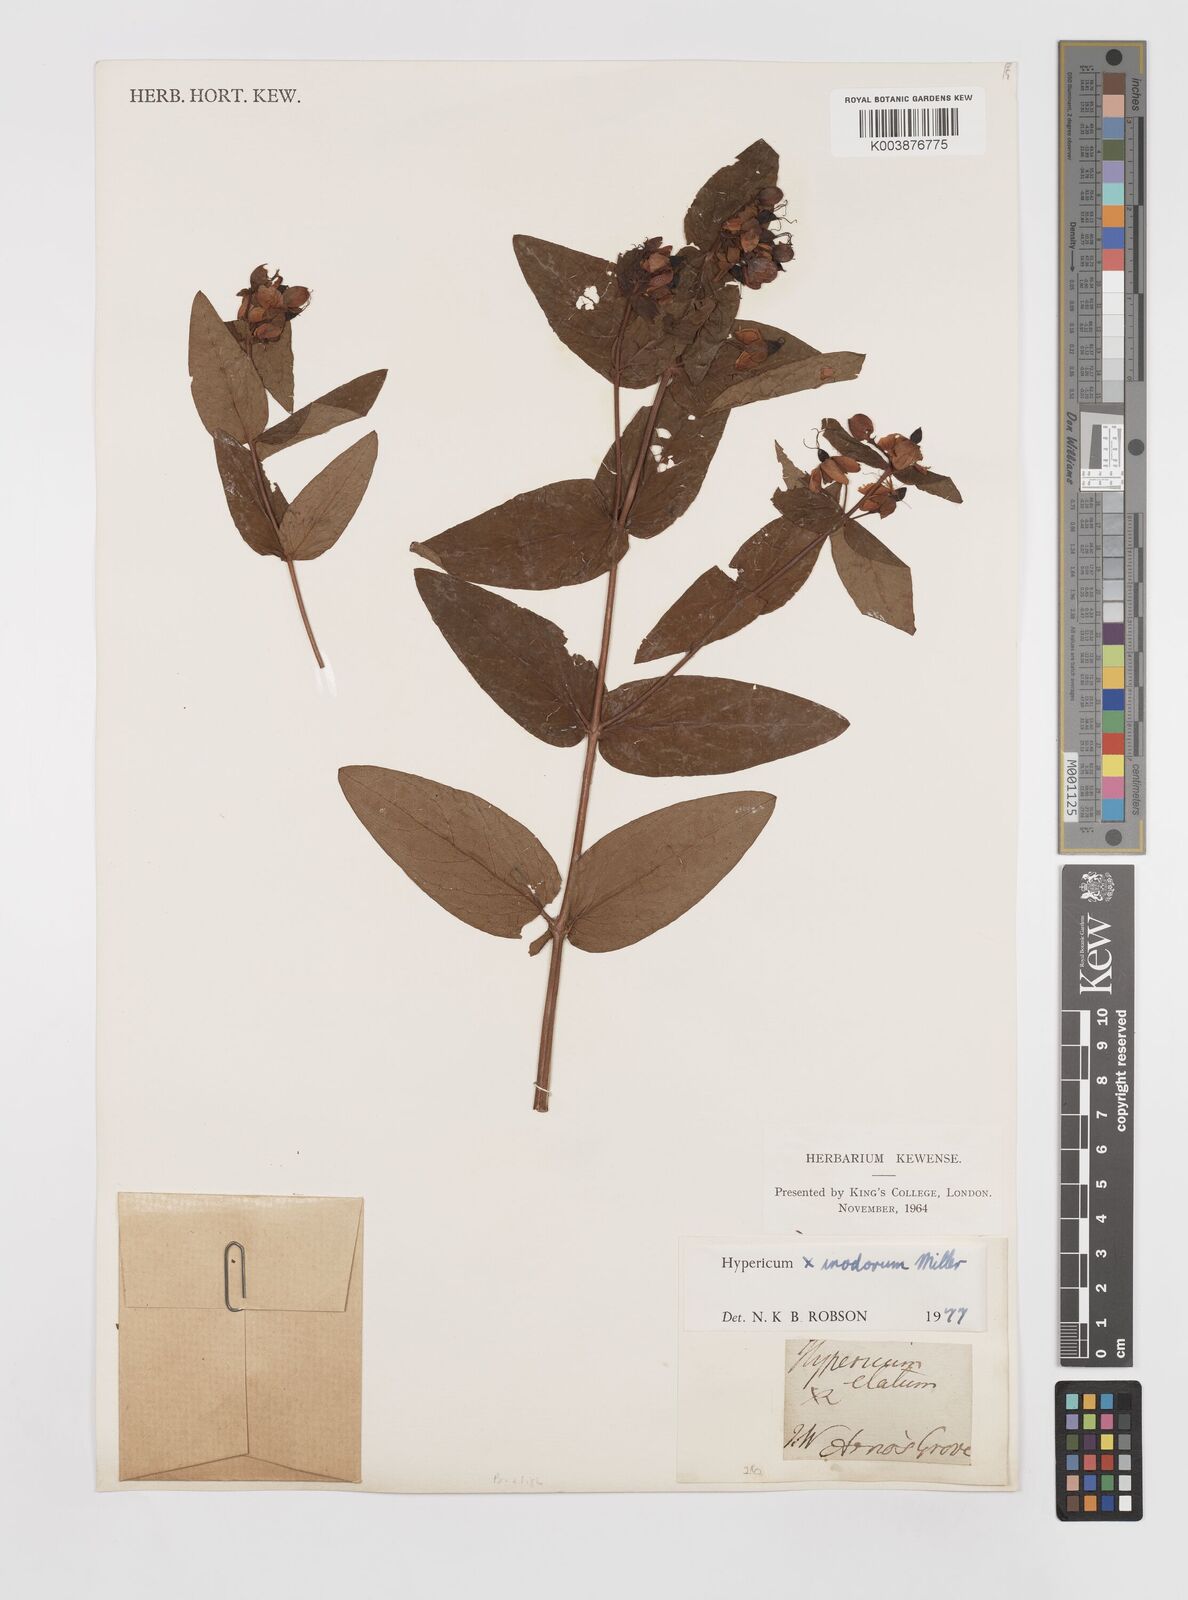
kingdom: Plantae
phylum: Tracheophyta
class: Magnoliopsida
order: Malpighiales
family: Hypericaceae
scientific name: Hypericaceae
